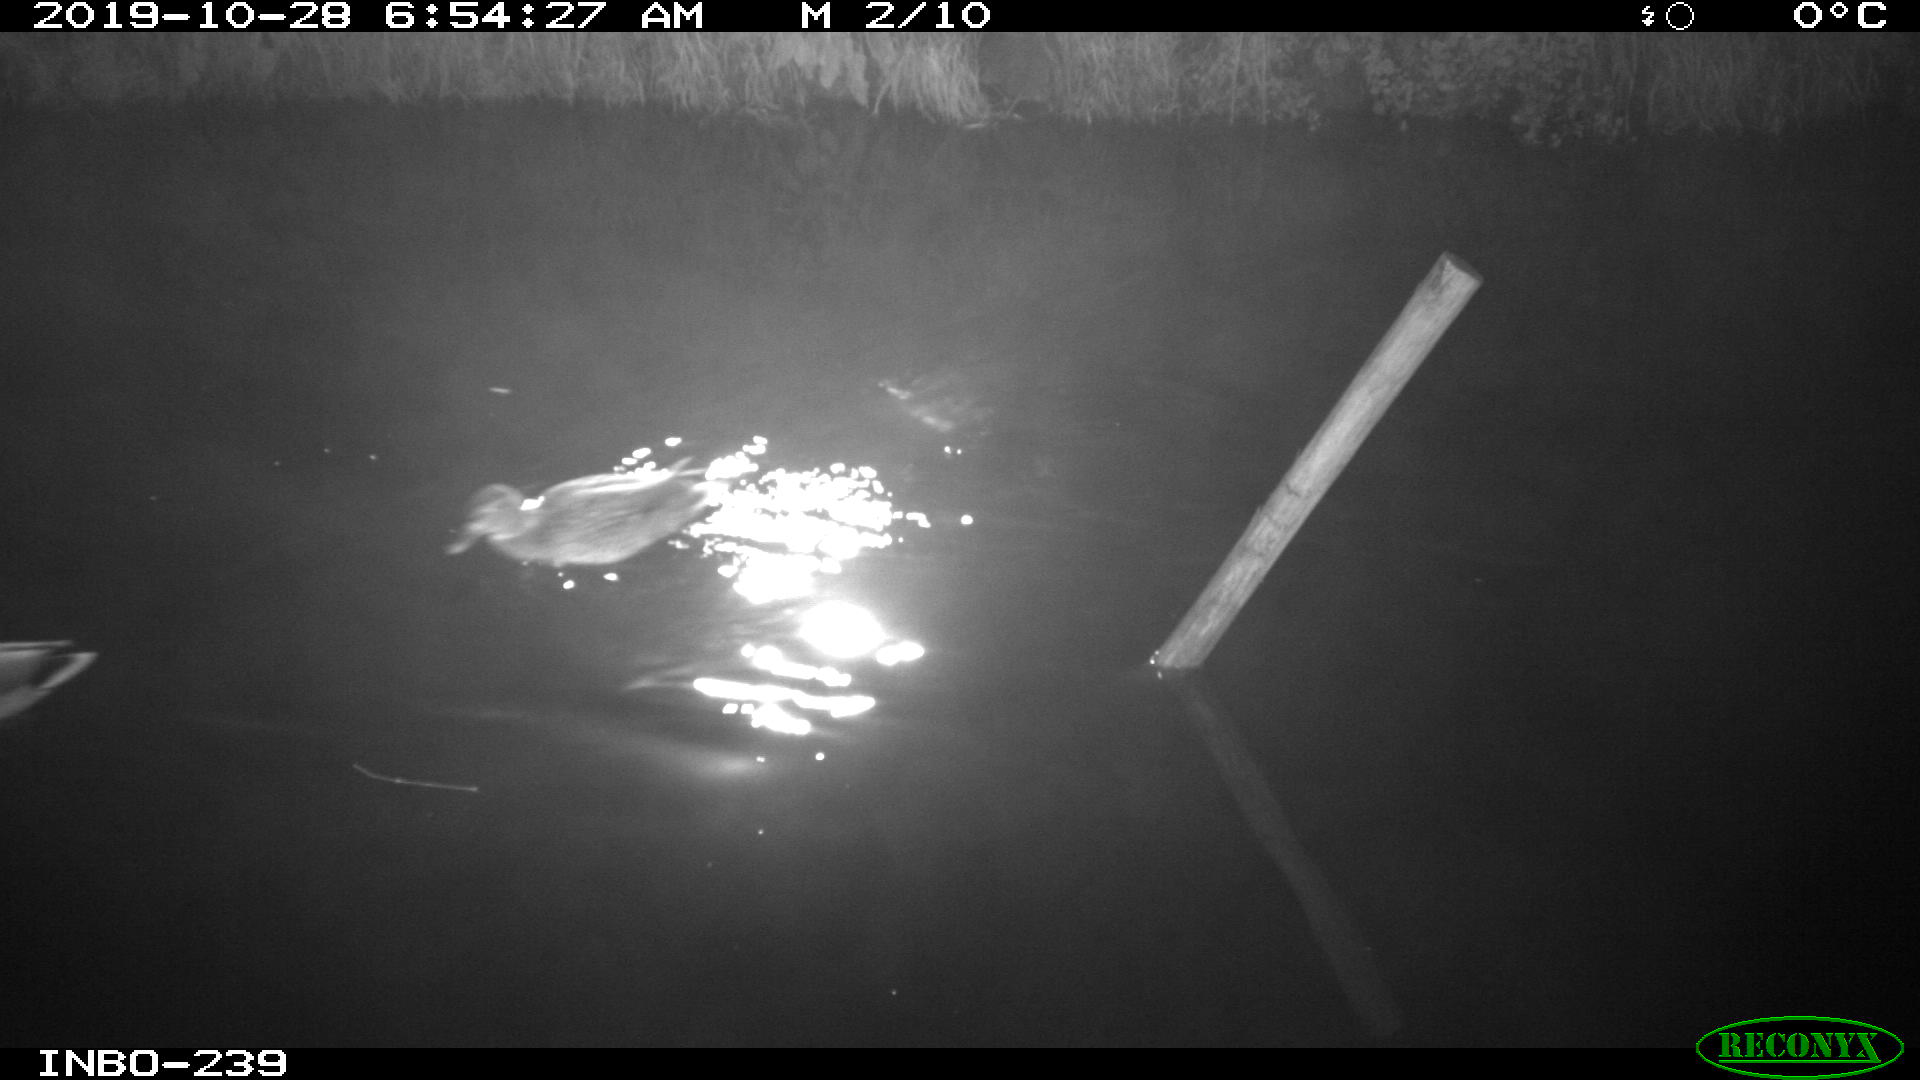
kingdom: Animalia
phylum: Chordata
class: Aves
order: Anseriformes
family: Anatidae
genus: Anas
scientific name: Anas platyrhynchos
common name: Mallard
